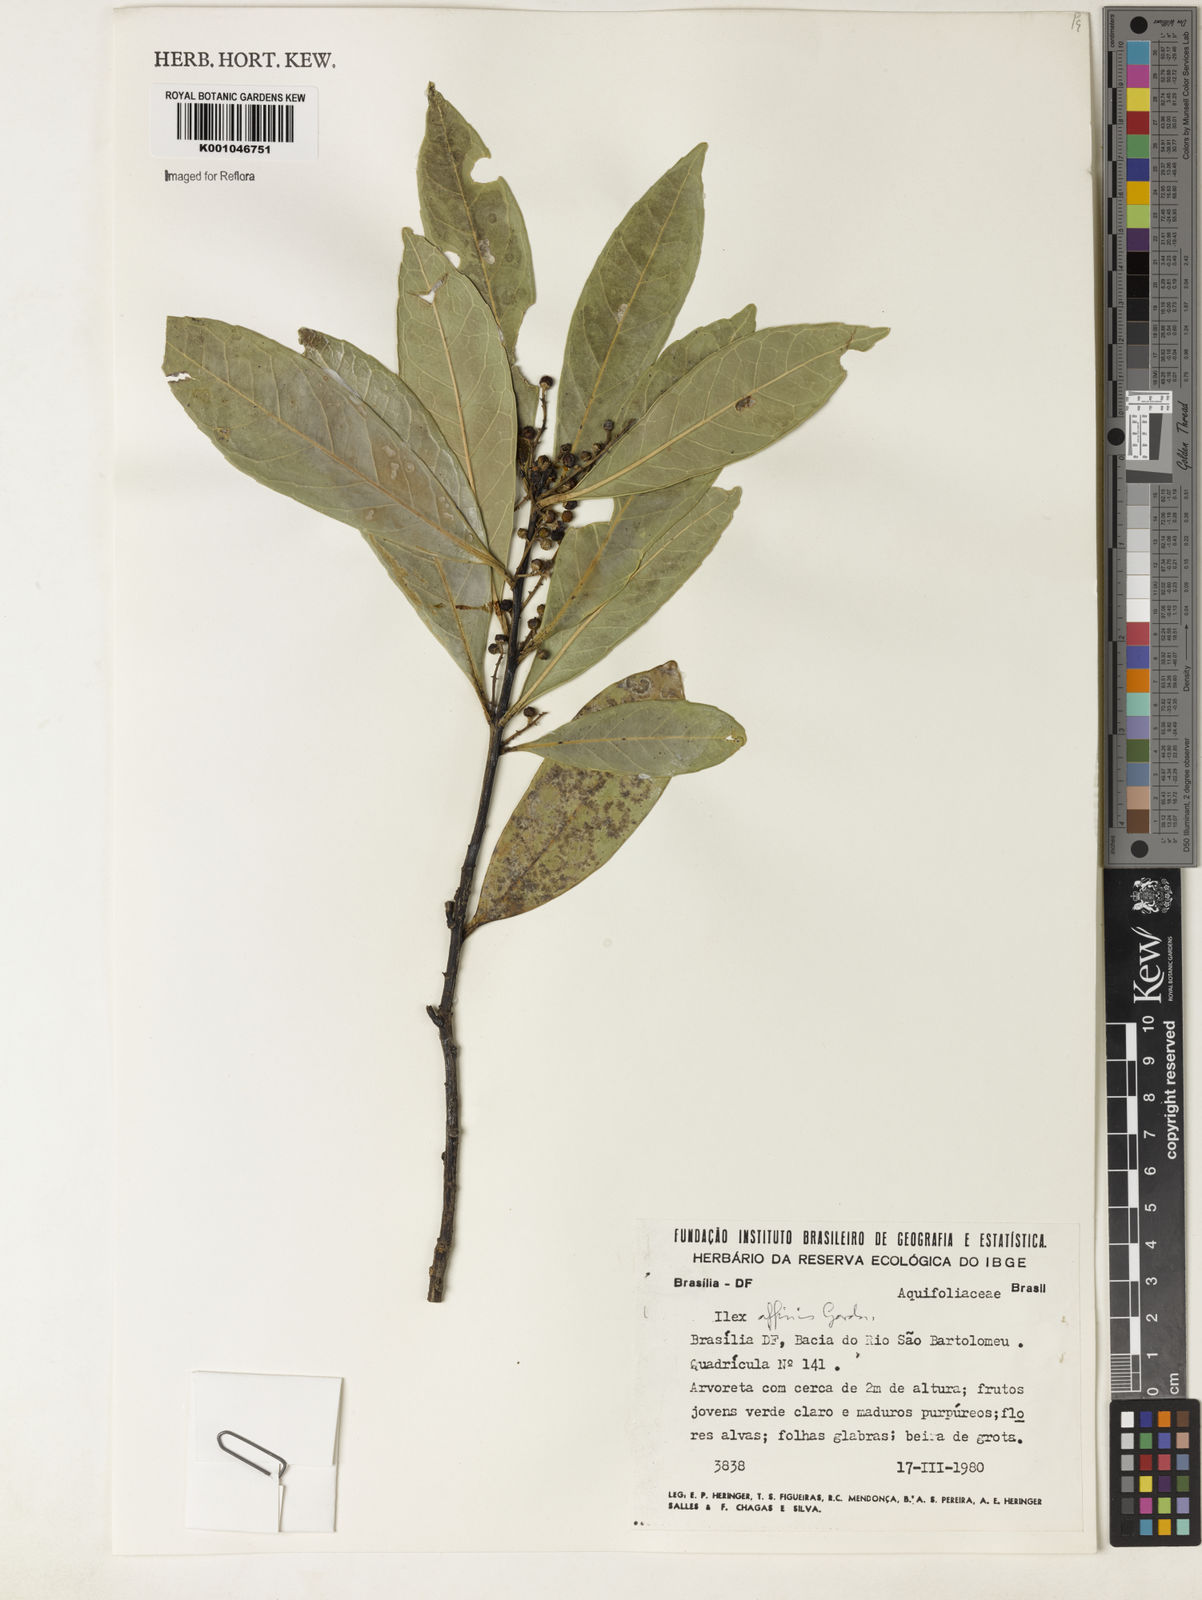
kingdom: Plantae
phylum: Tracheophyta
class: Magnoliopsida
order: Aquifoliales
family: Aquifoliaceae
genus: Ilex
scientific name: Ilex affinis
